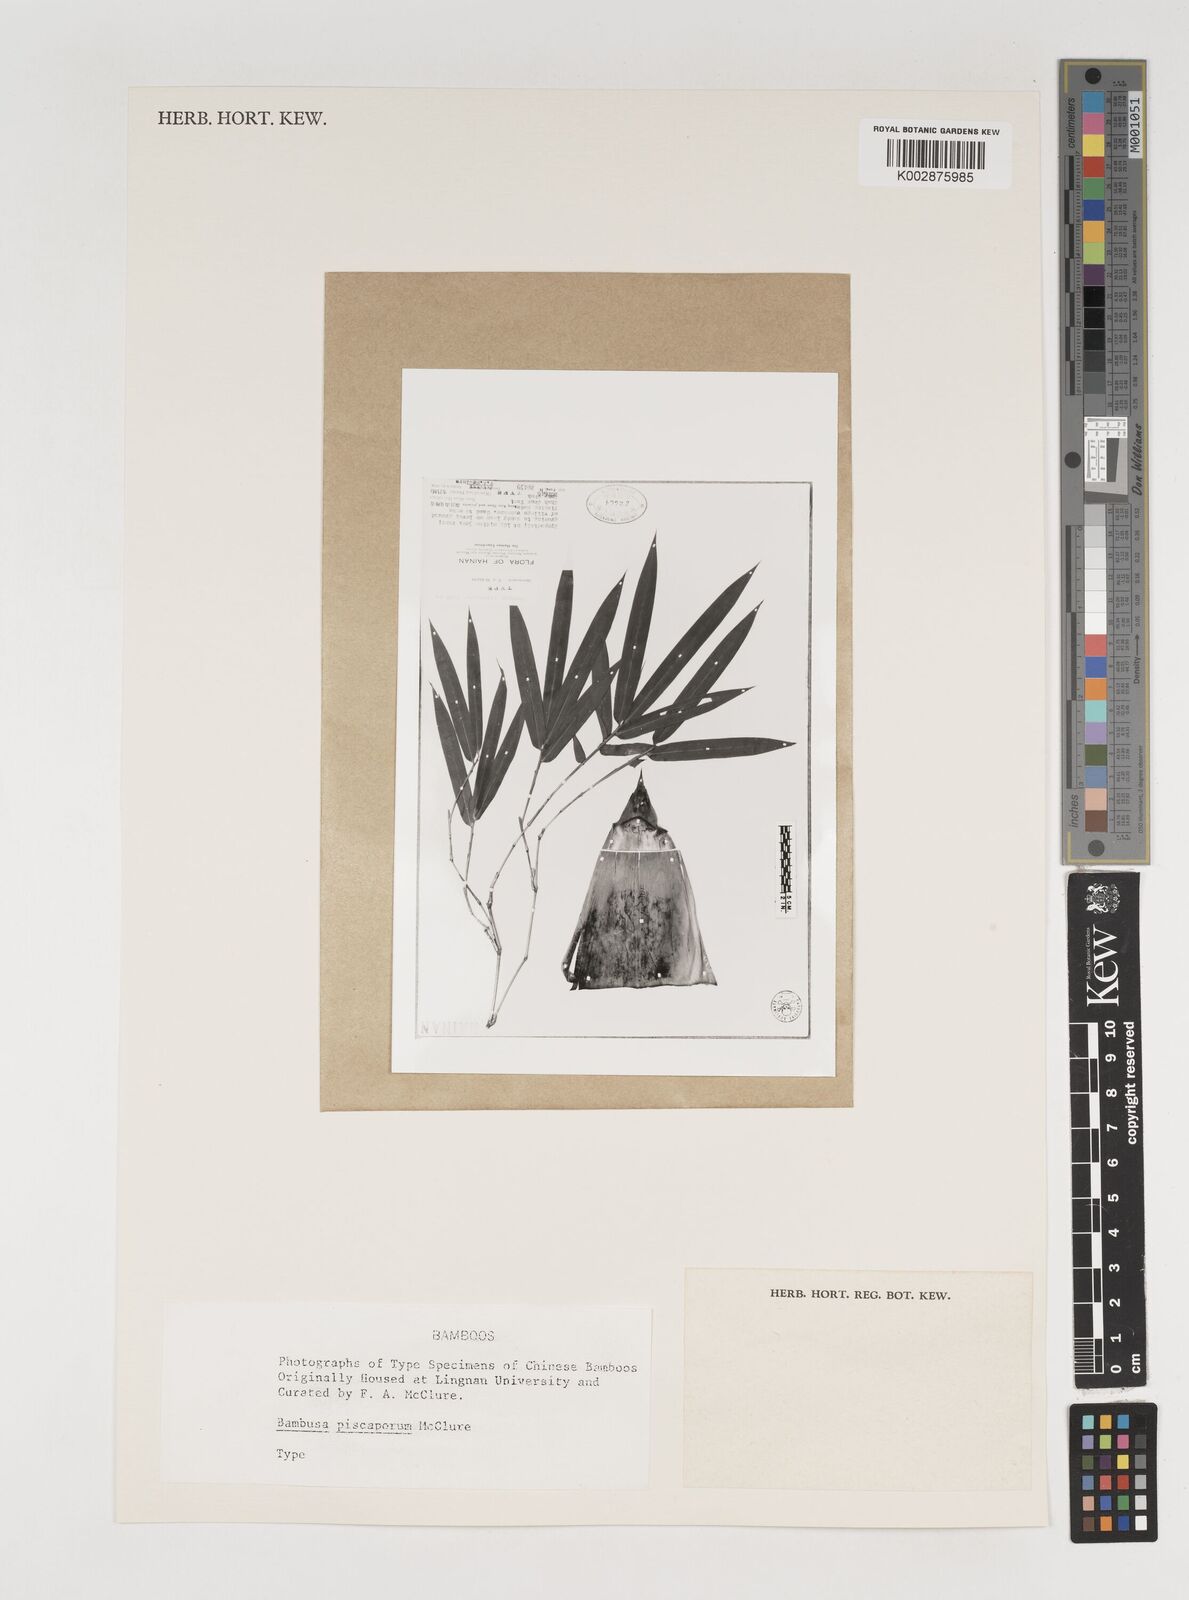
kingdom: Plantae
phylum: Tracheophyta
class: Liliopsida
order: Poales
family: Poaceae
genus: Bambusa
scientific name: Bambusa piscatorum
